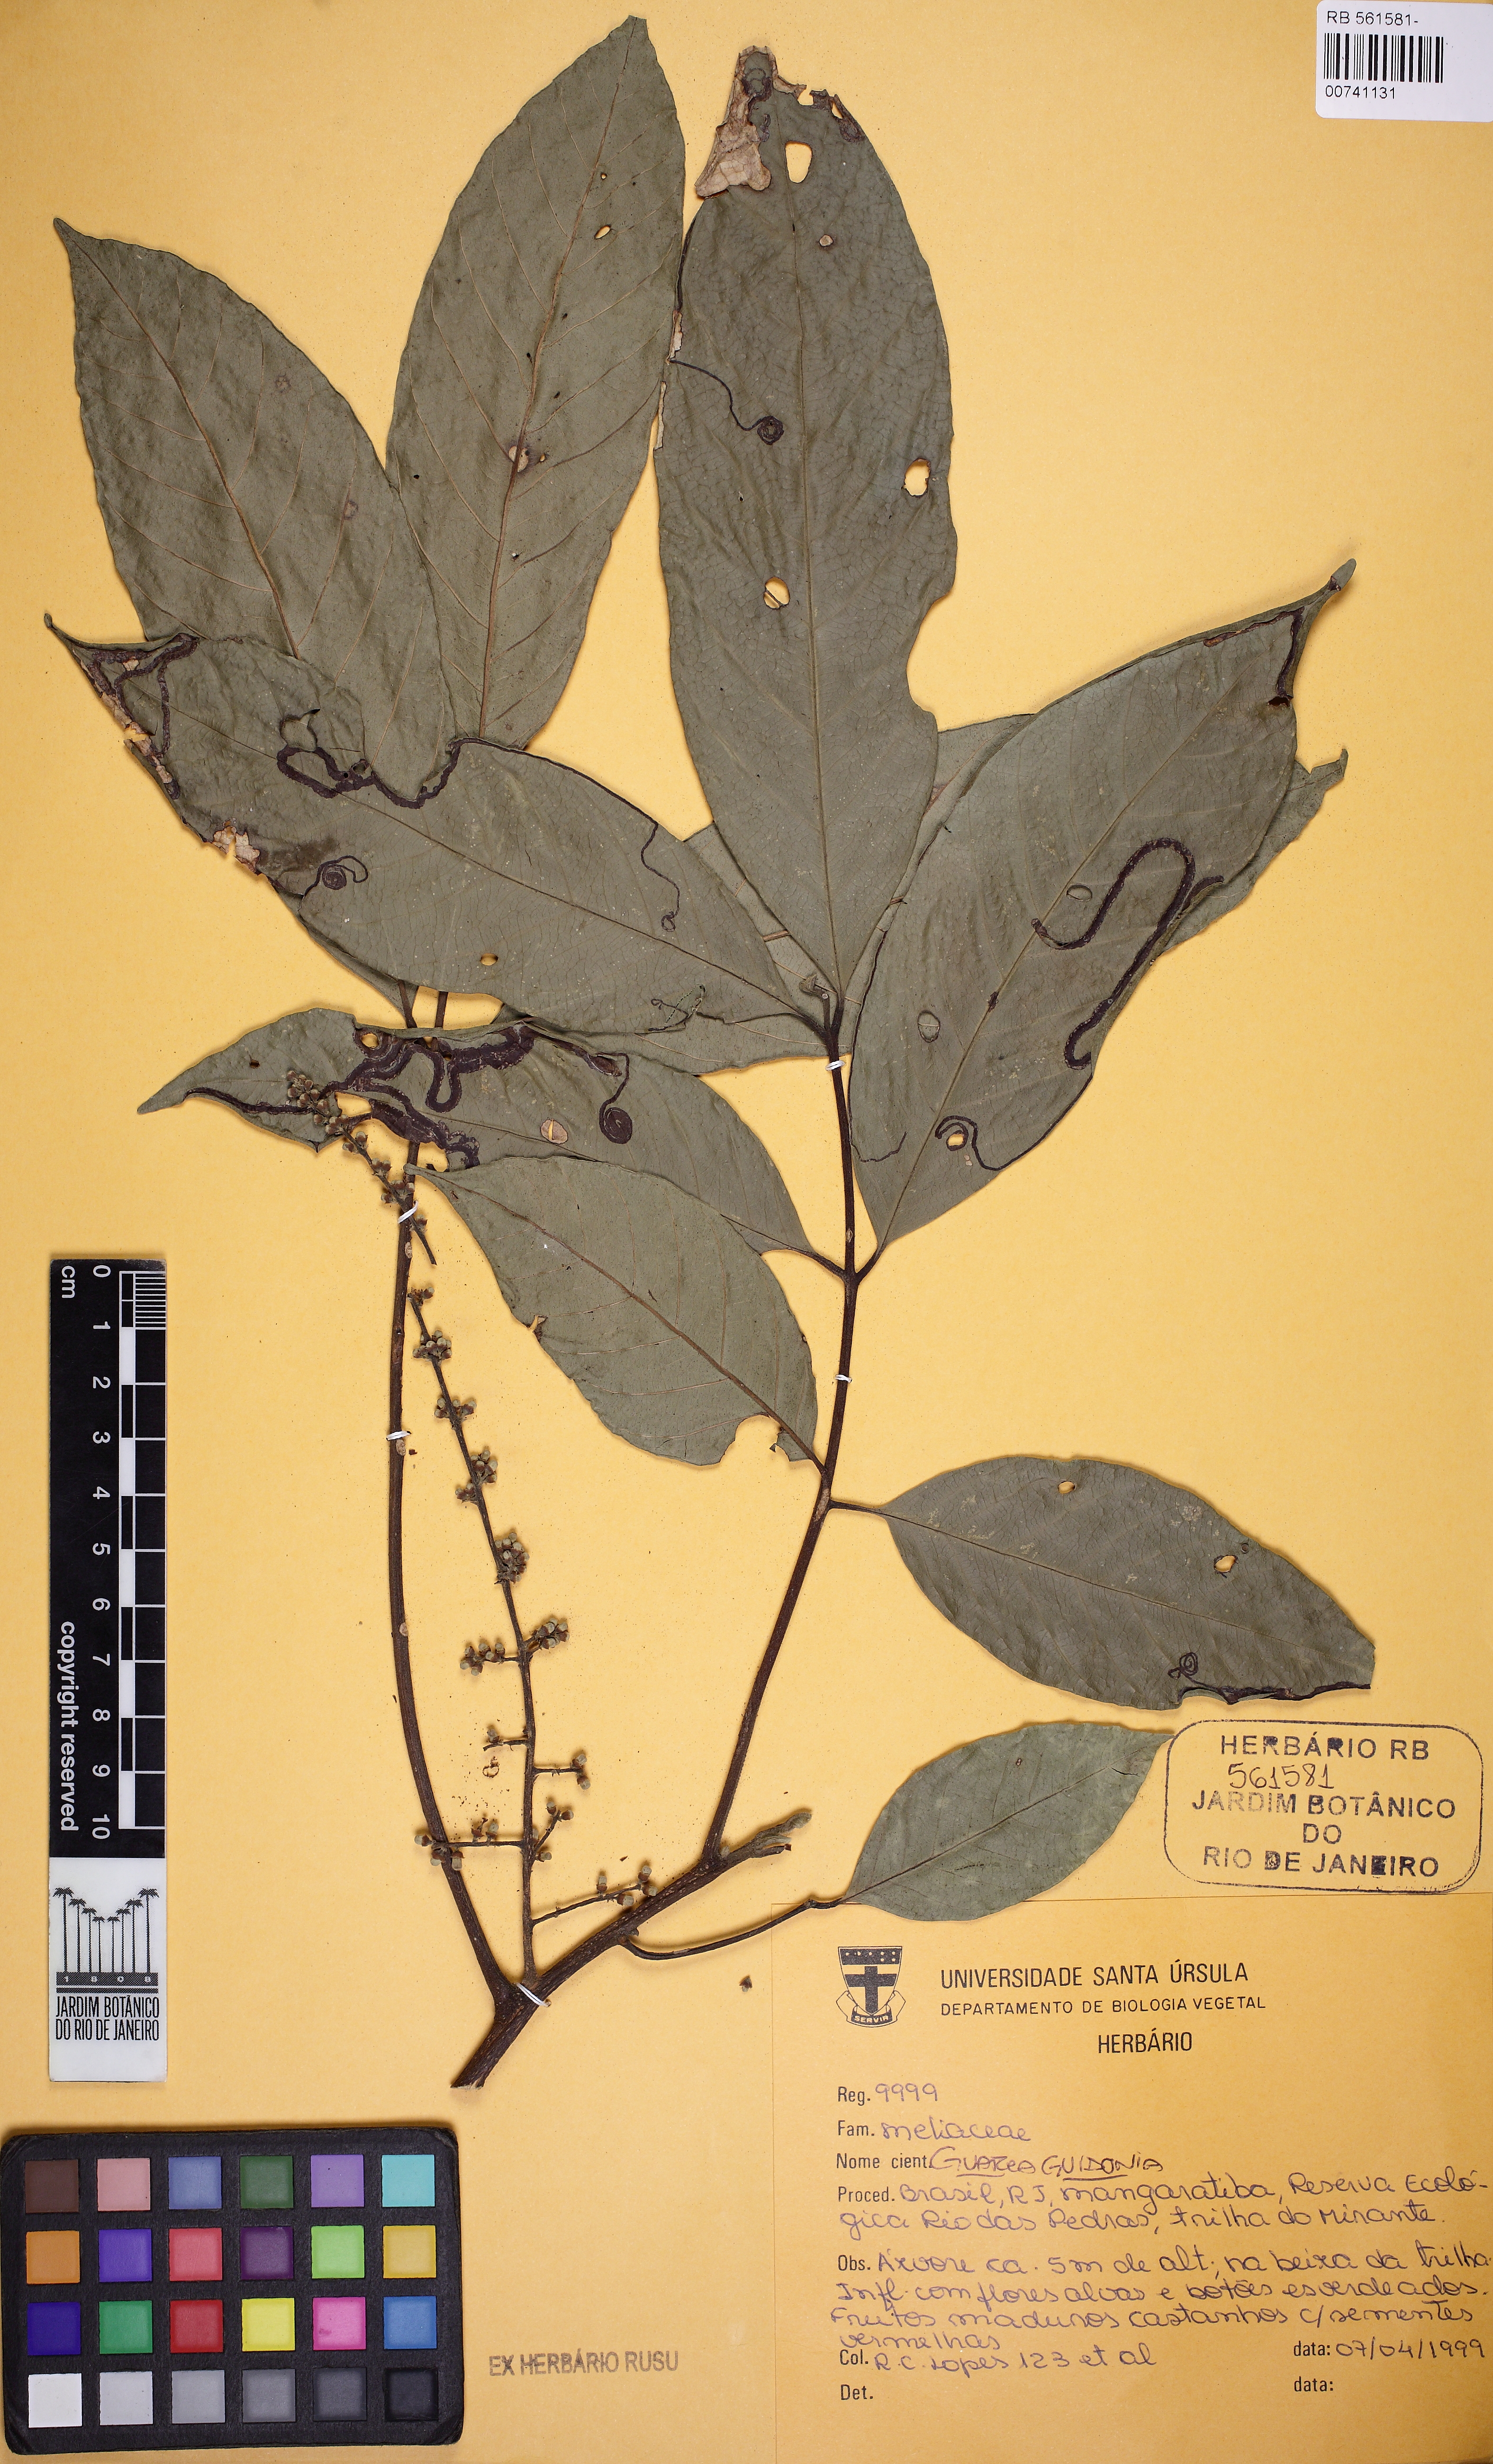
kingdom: Plantae
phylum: Tracheophyta
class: Magnoliopsida
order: Sapindales
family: Meliaceae
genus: Guarea
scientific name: Guarea guidonia
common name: American muskwood
